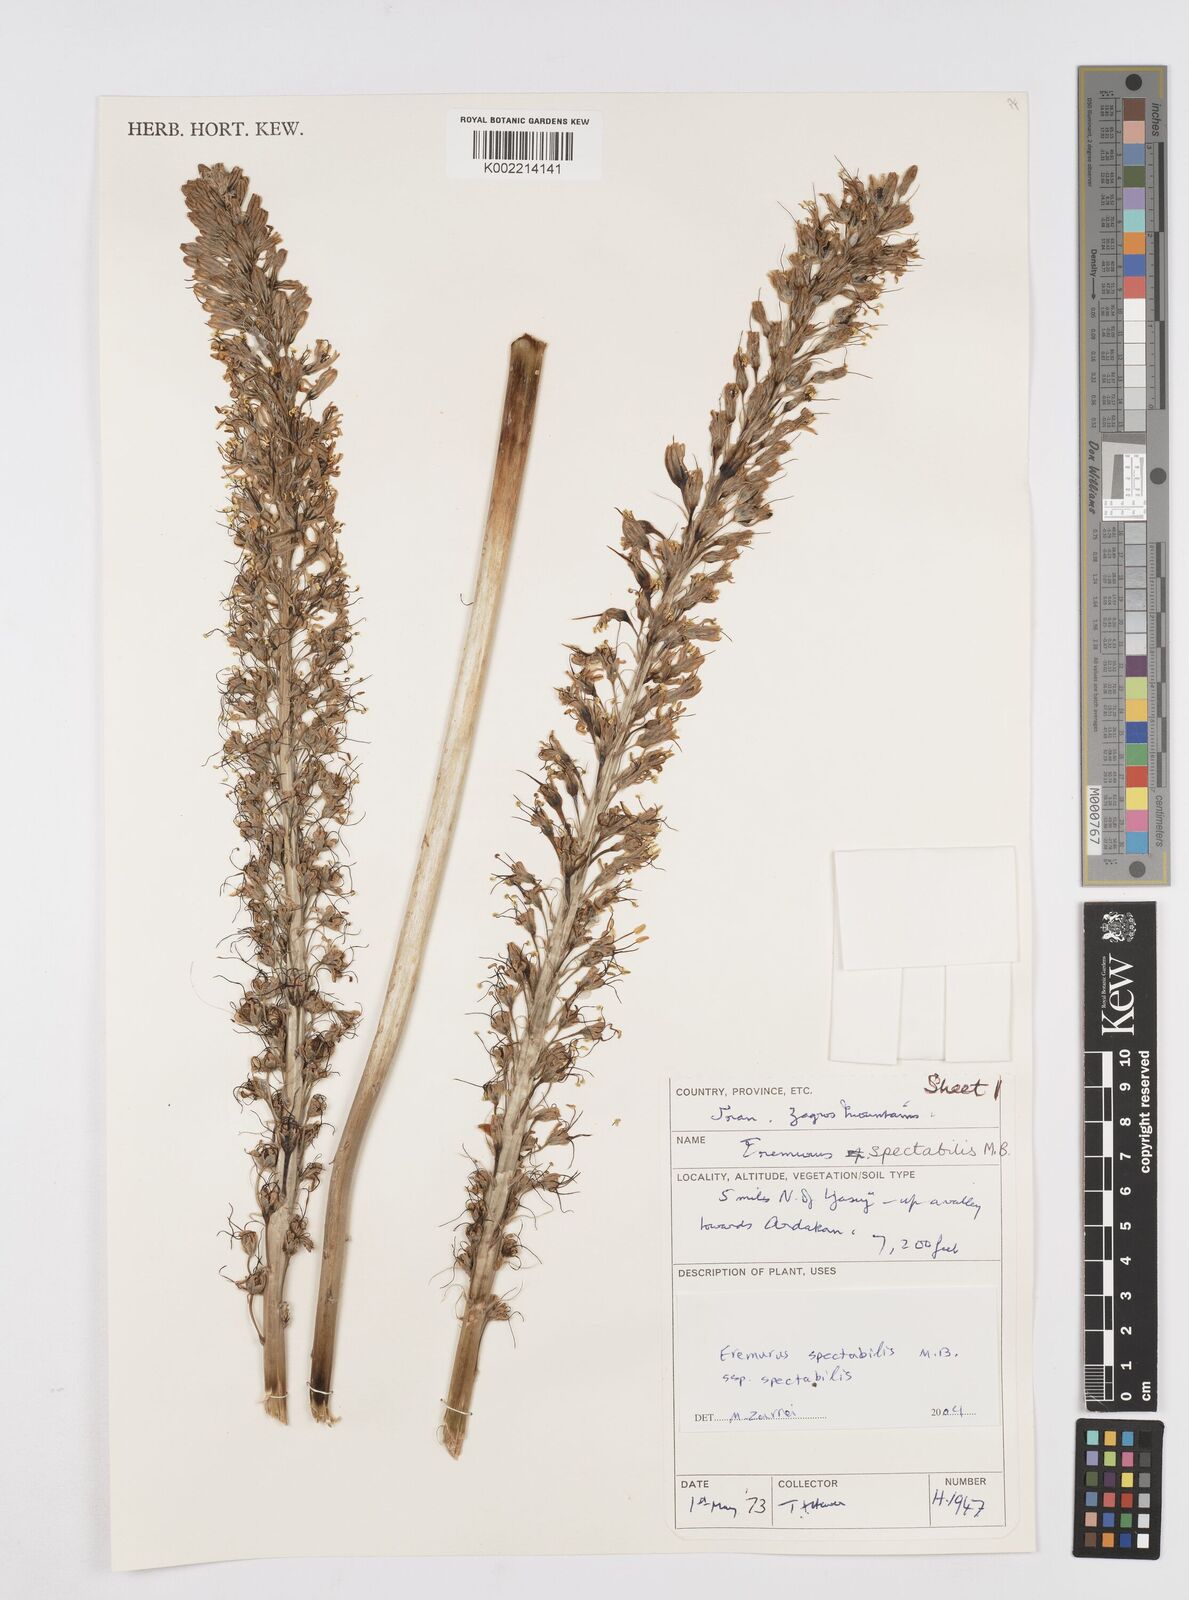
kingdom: Plantae
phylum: Tracheophyta
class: Liliopsida
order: Asparagales
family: Asphodelaceae
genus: Eremurus
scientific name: Eremurus spectabilis
